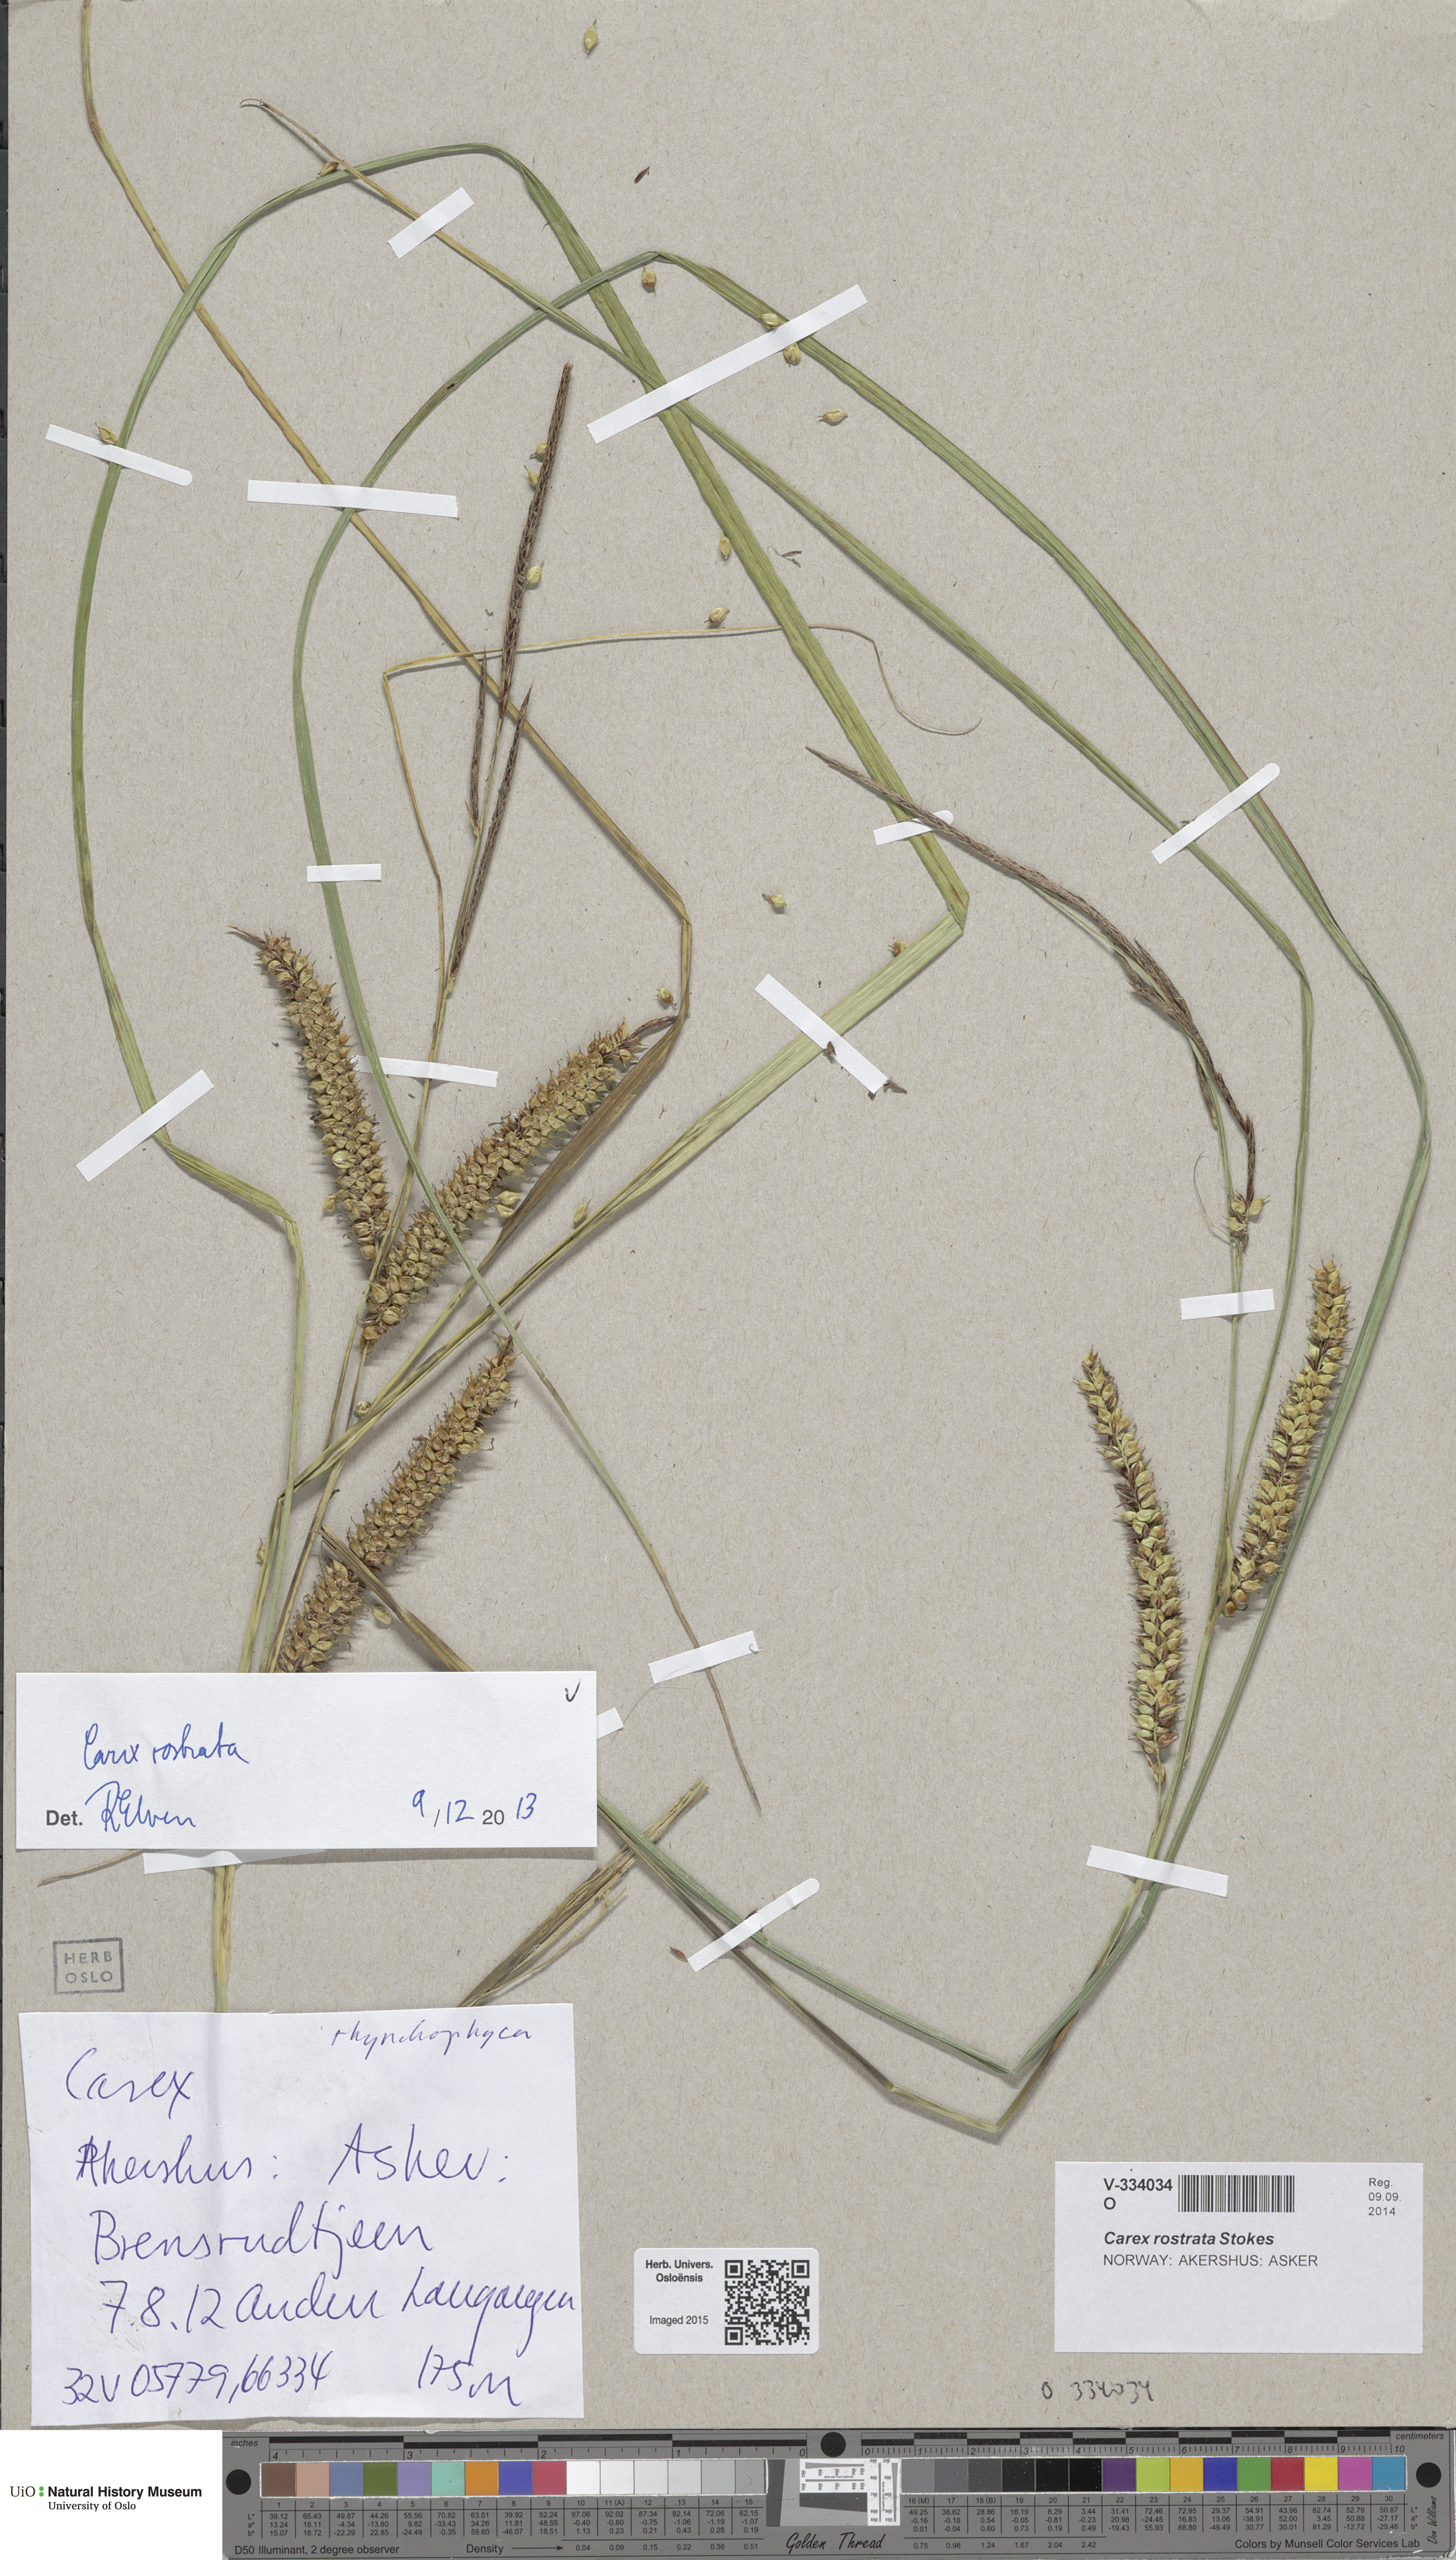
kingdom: Plantae
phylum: Tracheophyta
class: Liliopsida
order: Poales
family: Cyperaceae
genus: Carex
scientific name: Carex rostrata
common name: Bottle sedge
